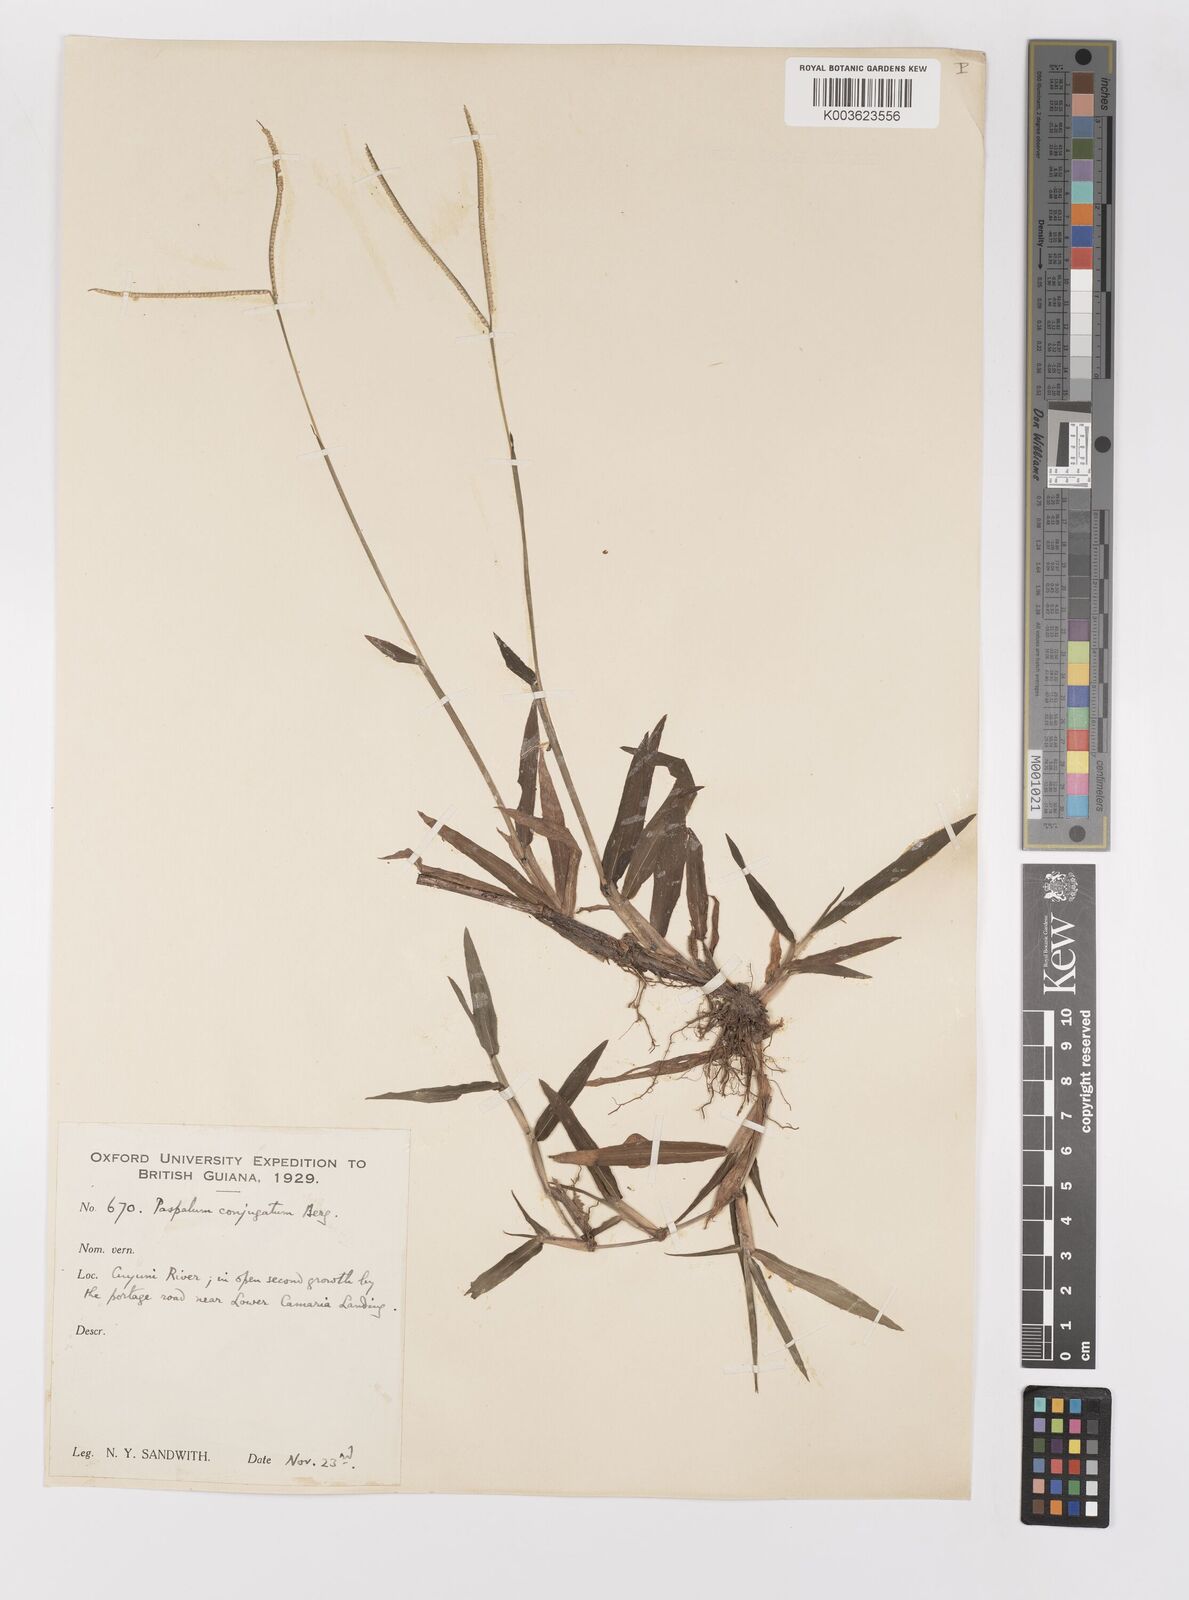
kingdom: Plantae
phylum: Tracheophyta
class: Liliopsida
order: Poales
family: Poaceae
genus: Paspalum
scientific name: Paspalum conjugatum
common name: Hilograss
